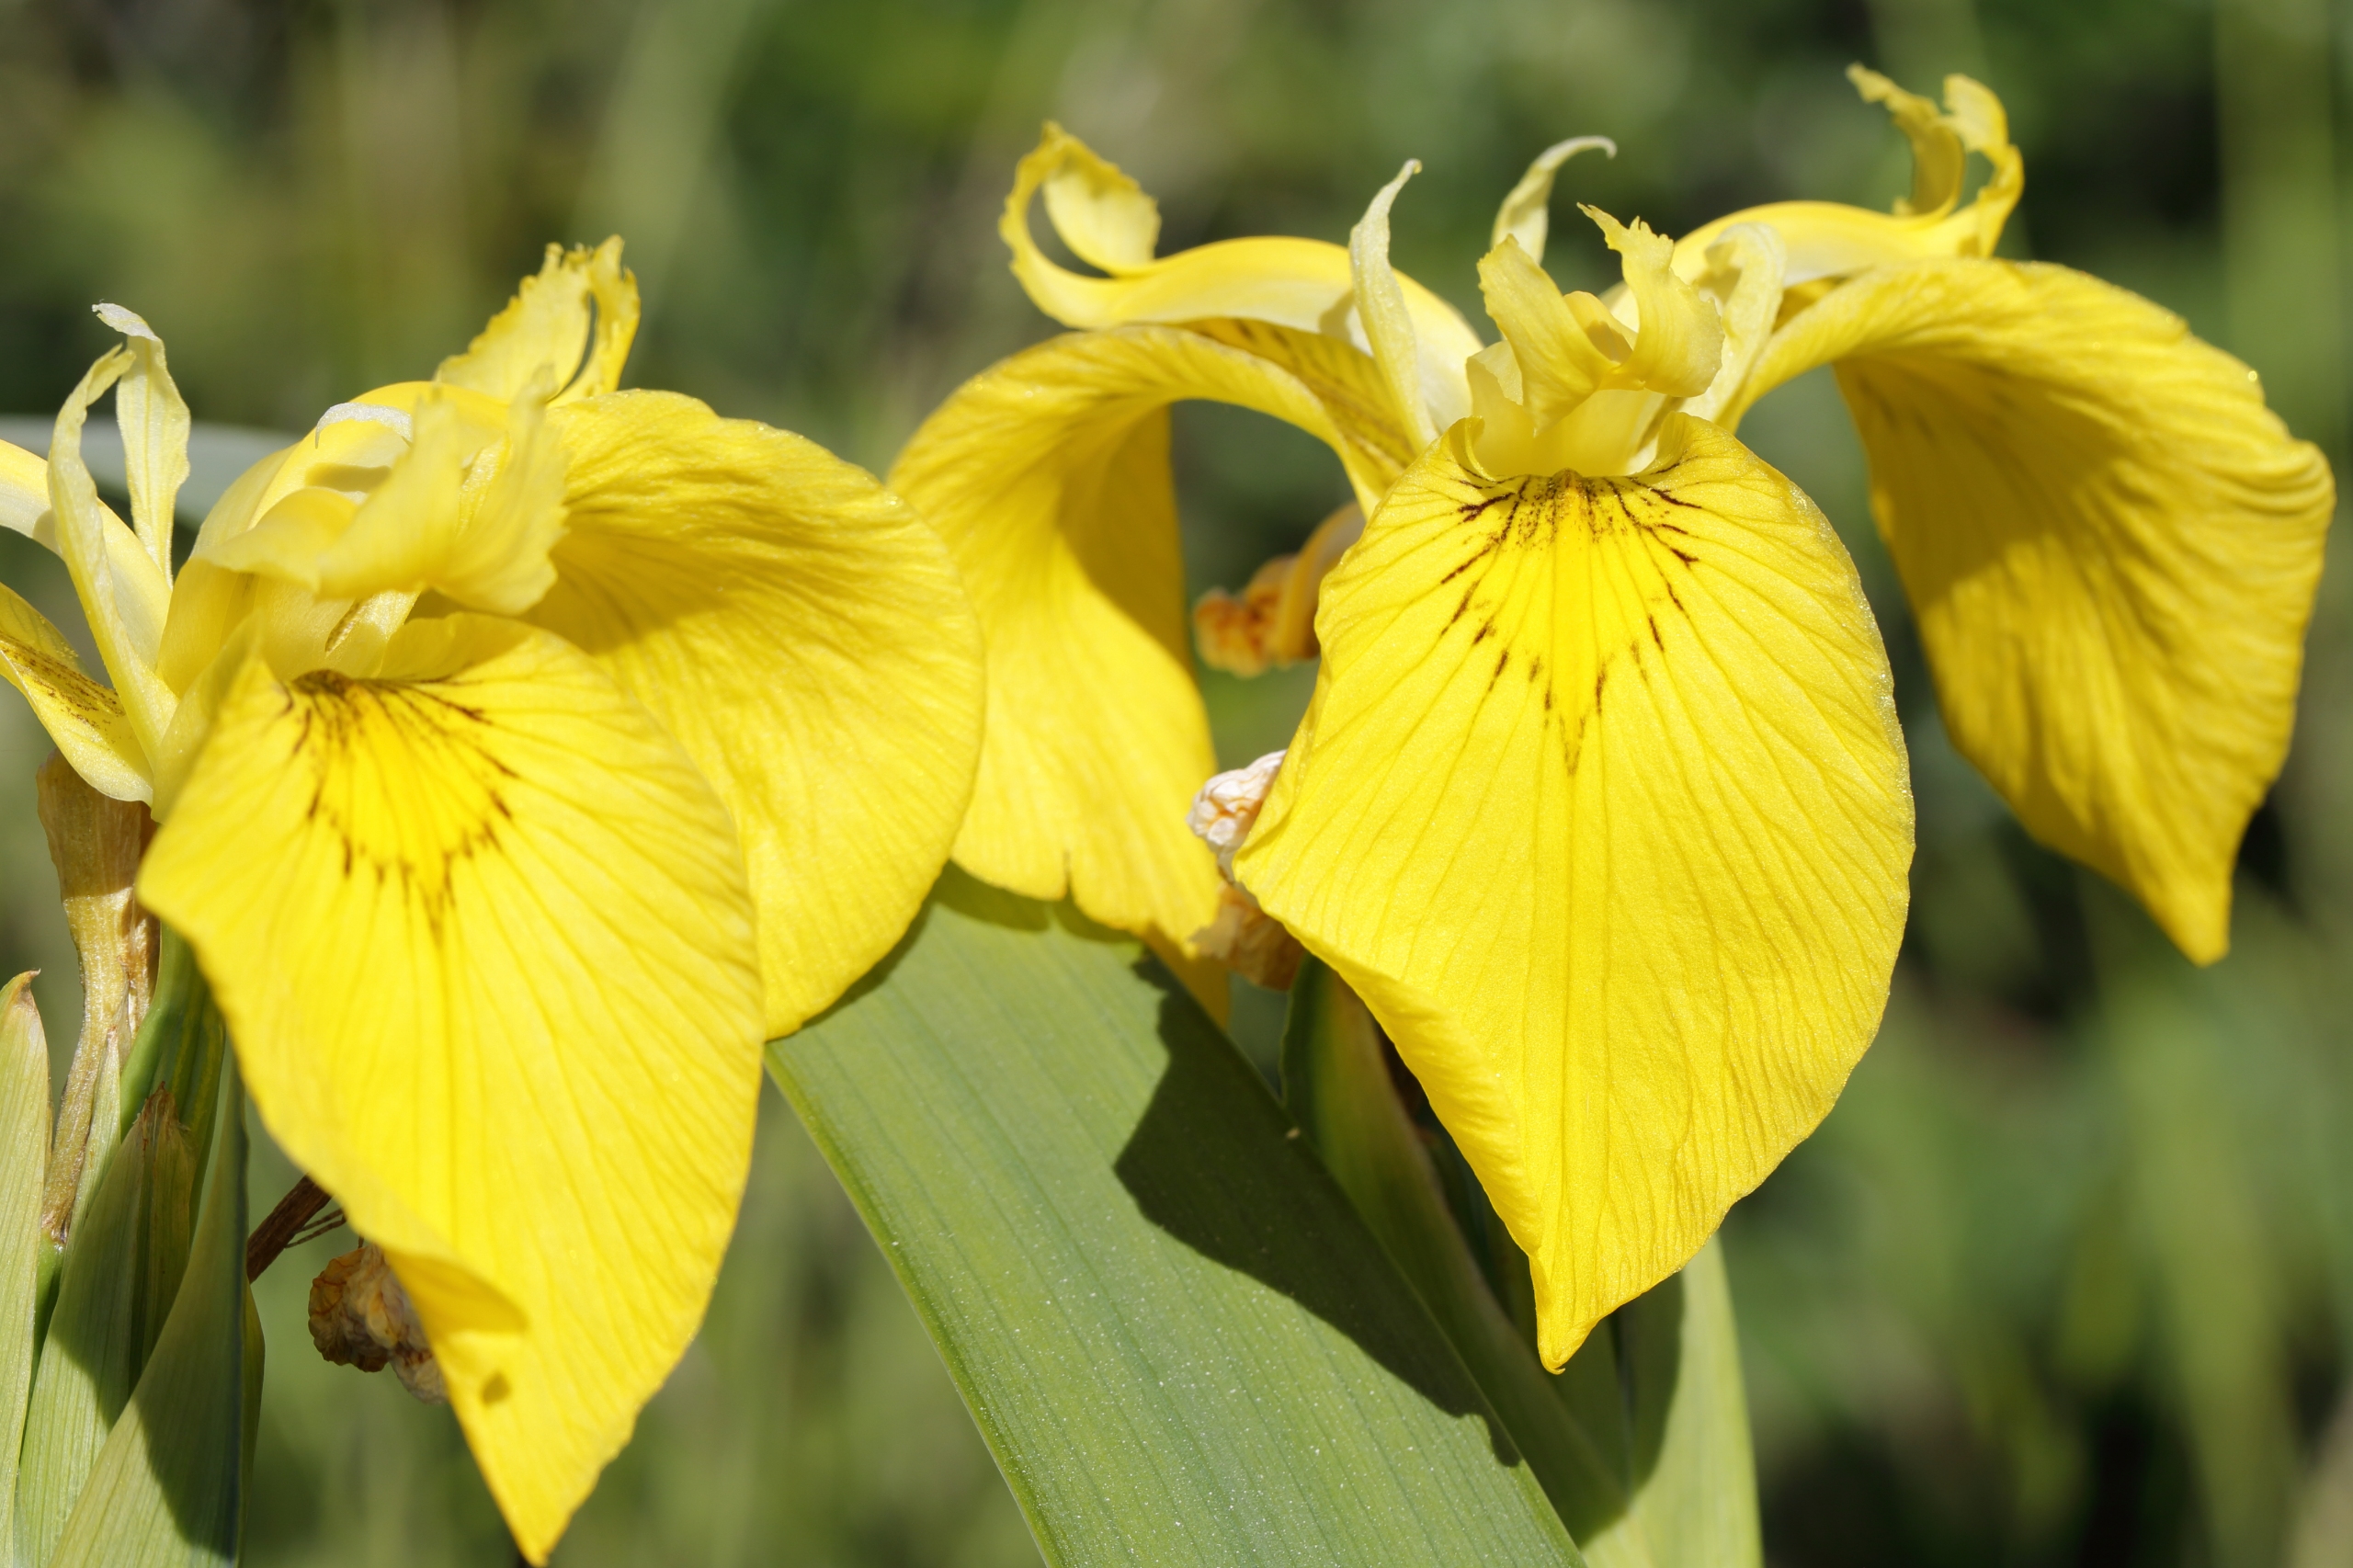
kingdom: Plantae
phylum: Tracheophyta
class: Liliopsida
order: Asparagales
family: Iridaceae
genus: Iris
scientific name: Iris pseudacorus
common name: Gul iris
